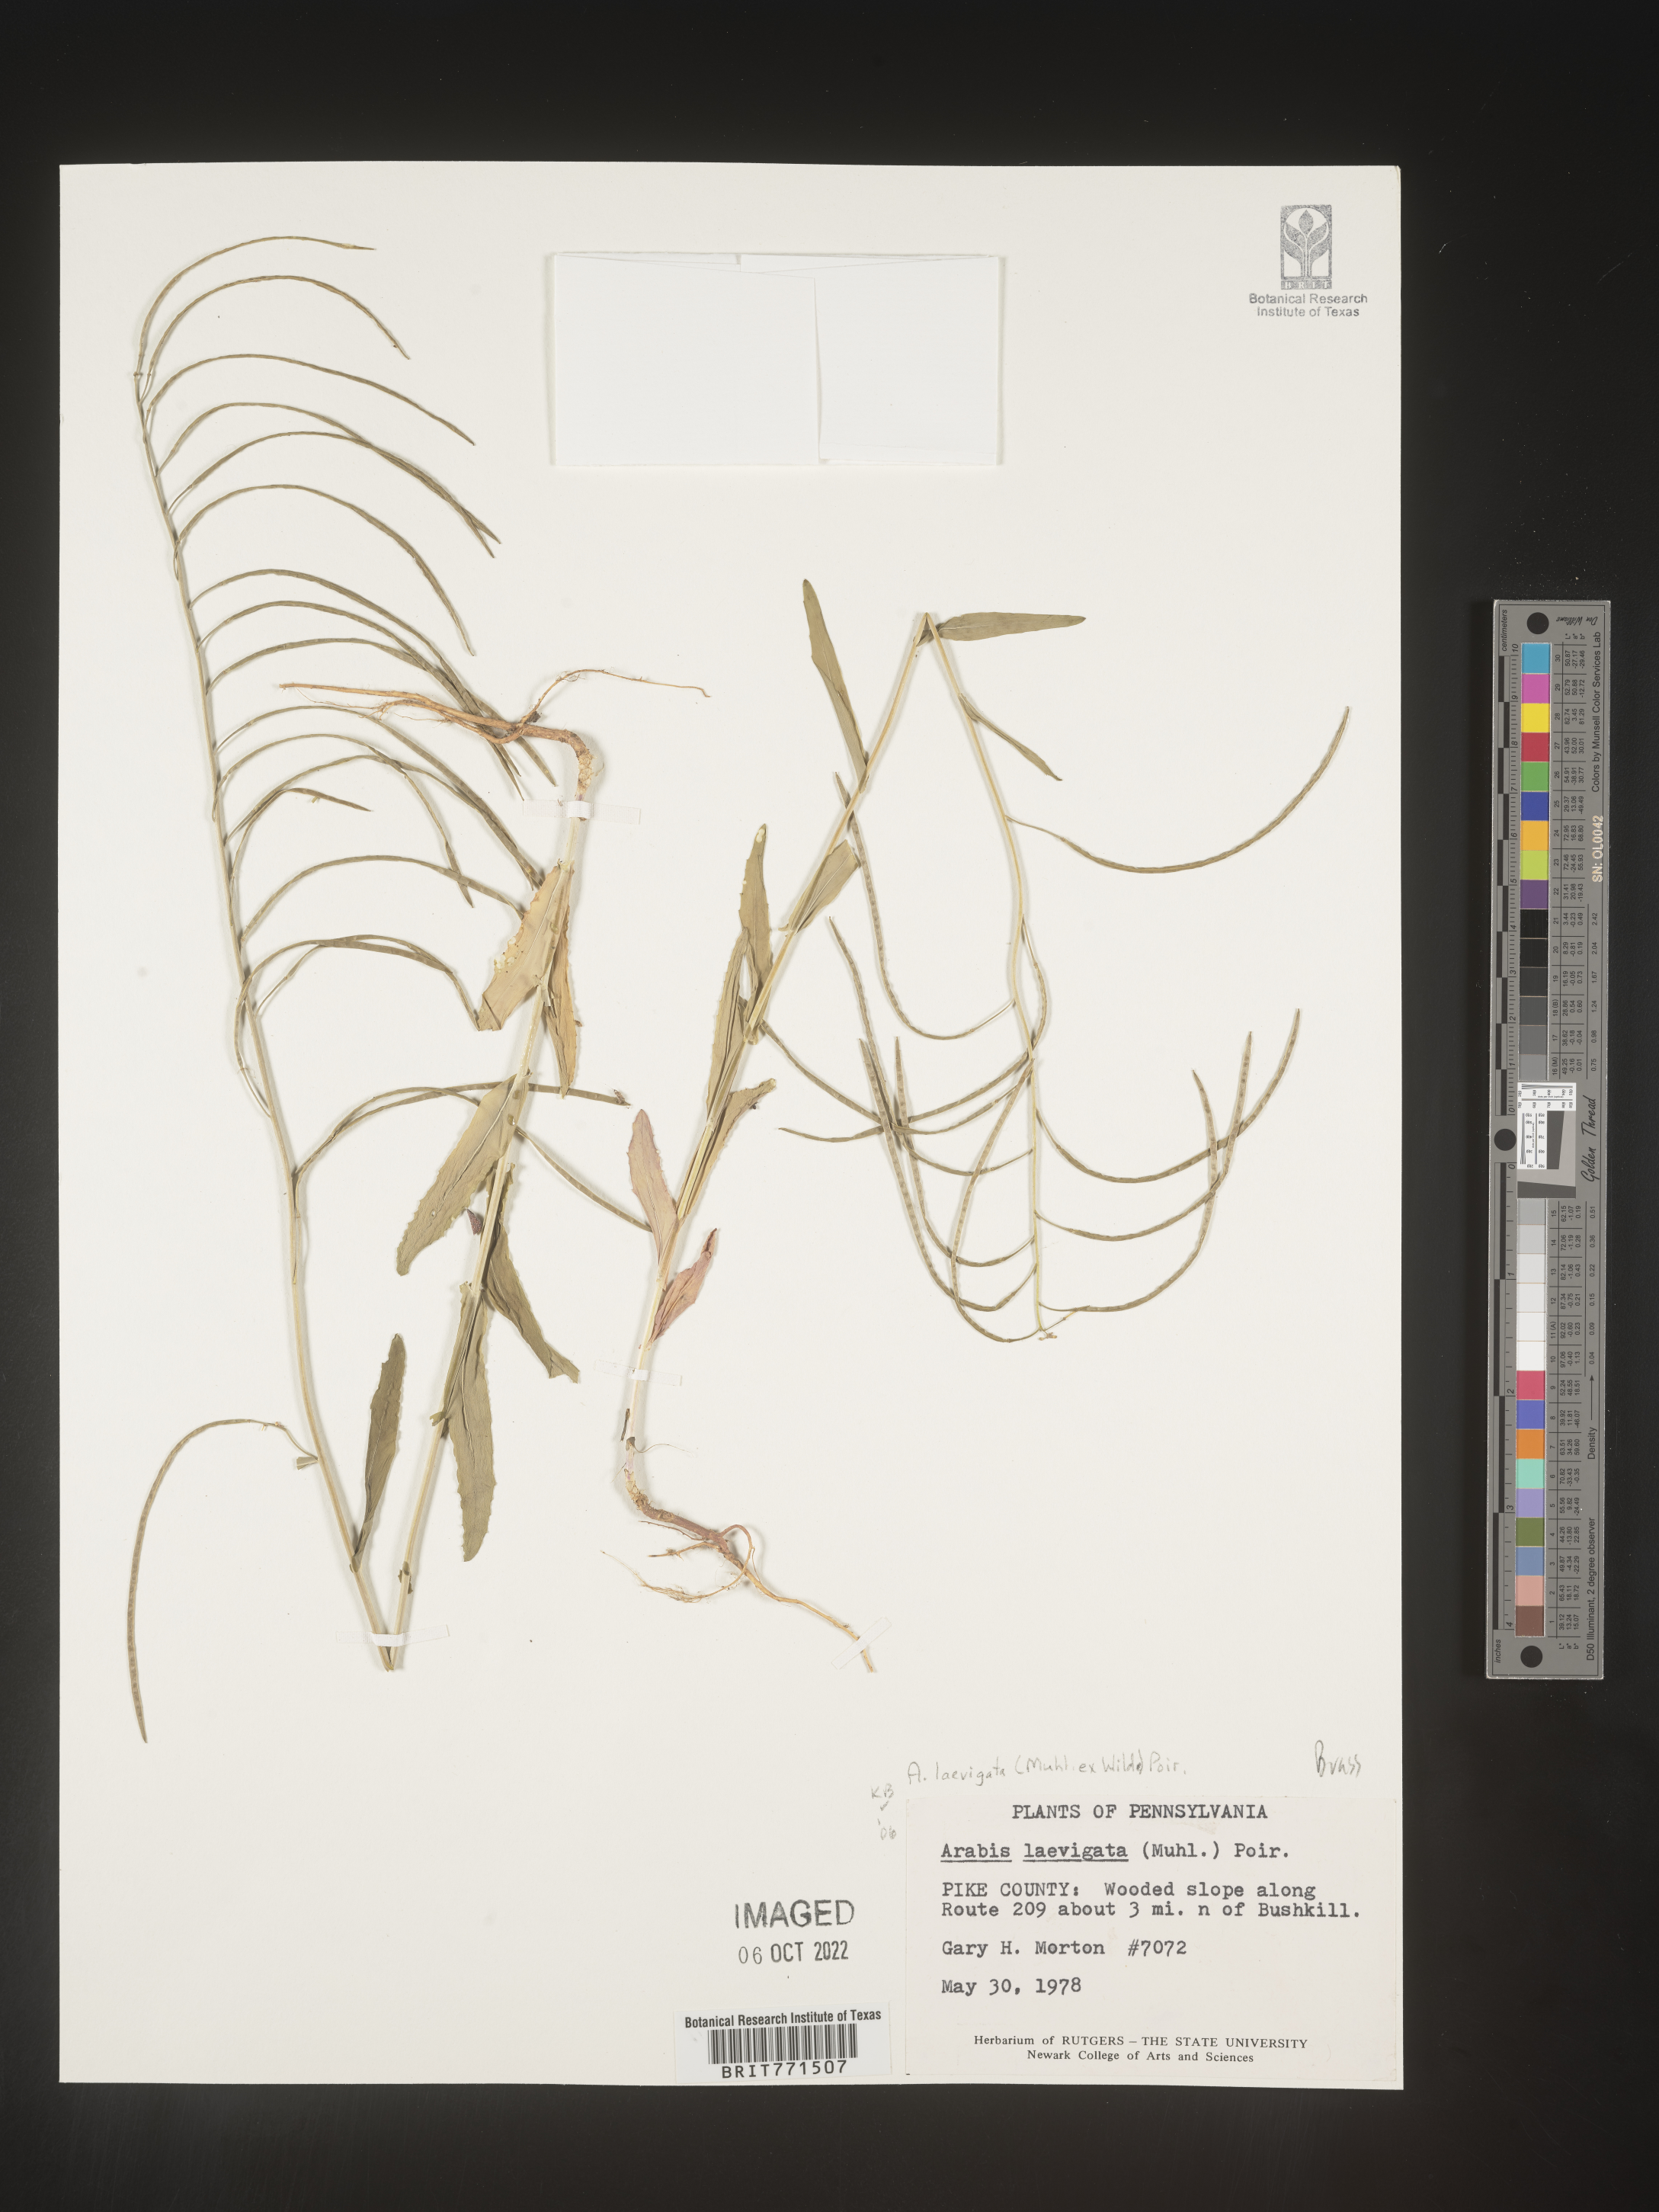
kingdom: Plantae
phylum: Tracheophyta
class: Magnoliopsida
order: Brassicales
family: Brassicaceae
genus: Arabis
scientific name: Arabis laevigata
